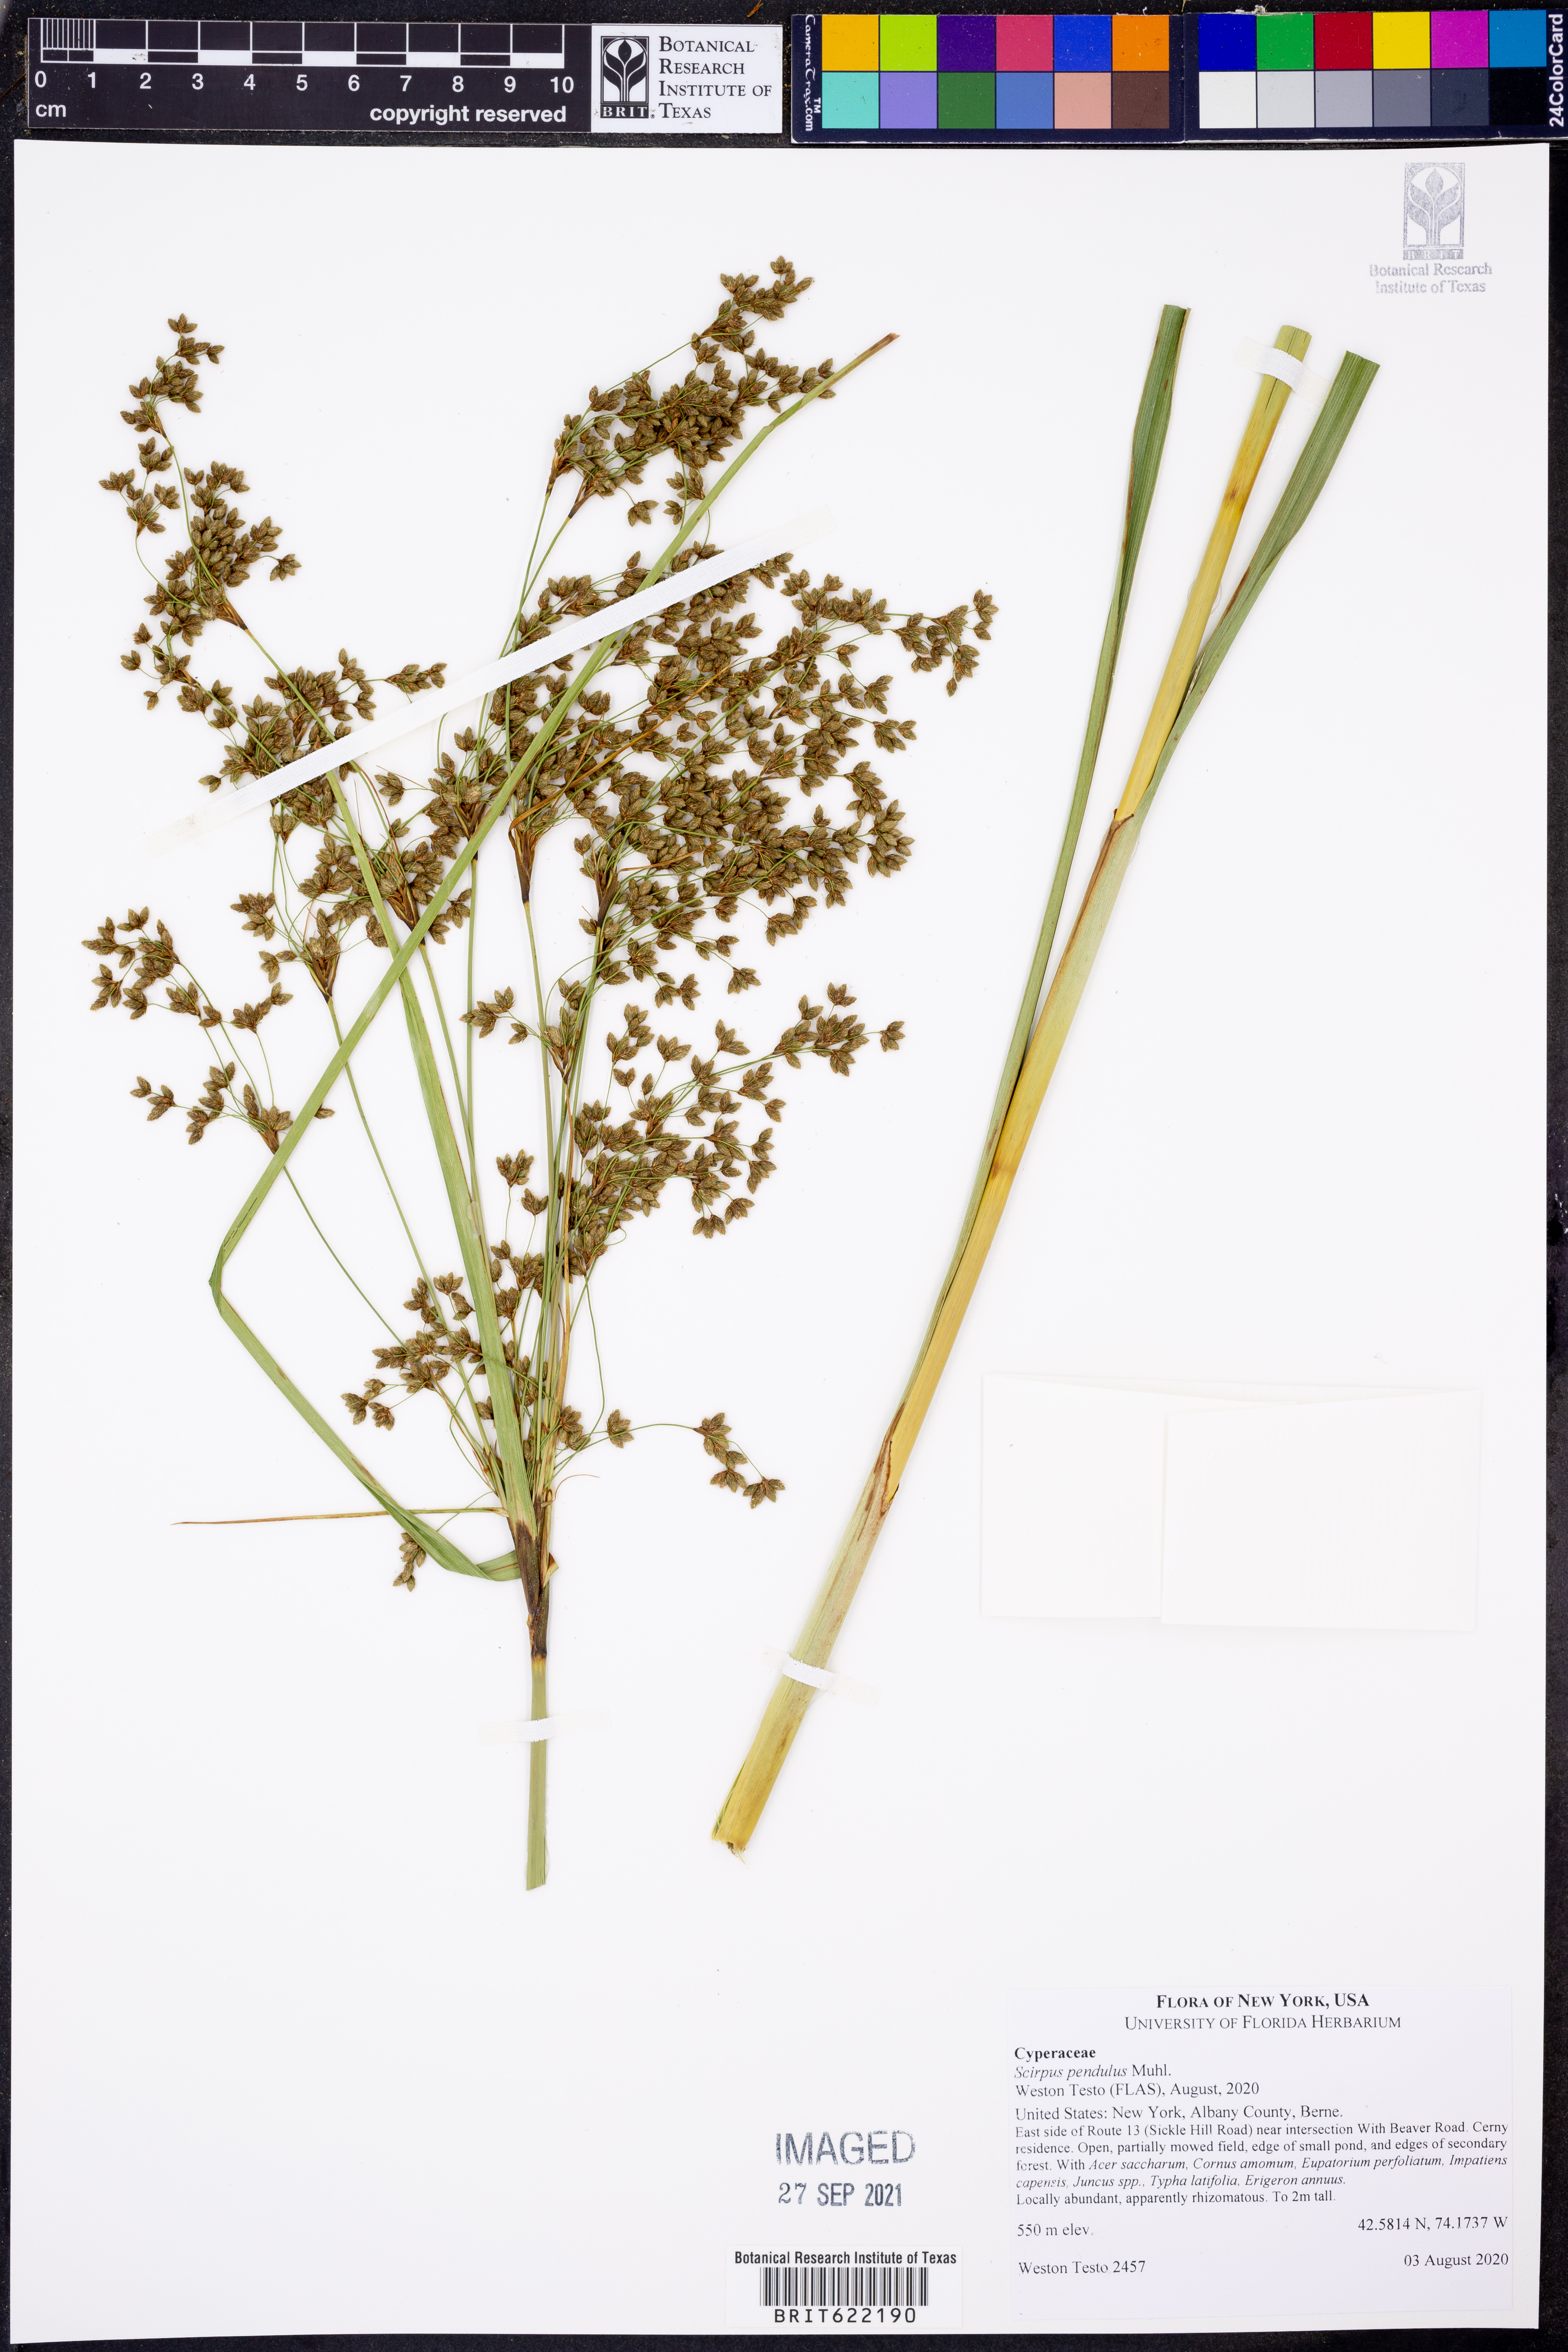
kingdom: Plantae
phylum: Tracheophyta
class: Liliopsida
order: Poales
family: Cyperaceae
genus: Scirpus
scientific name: Scirpus pendulus
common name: Nodding bulrush
